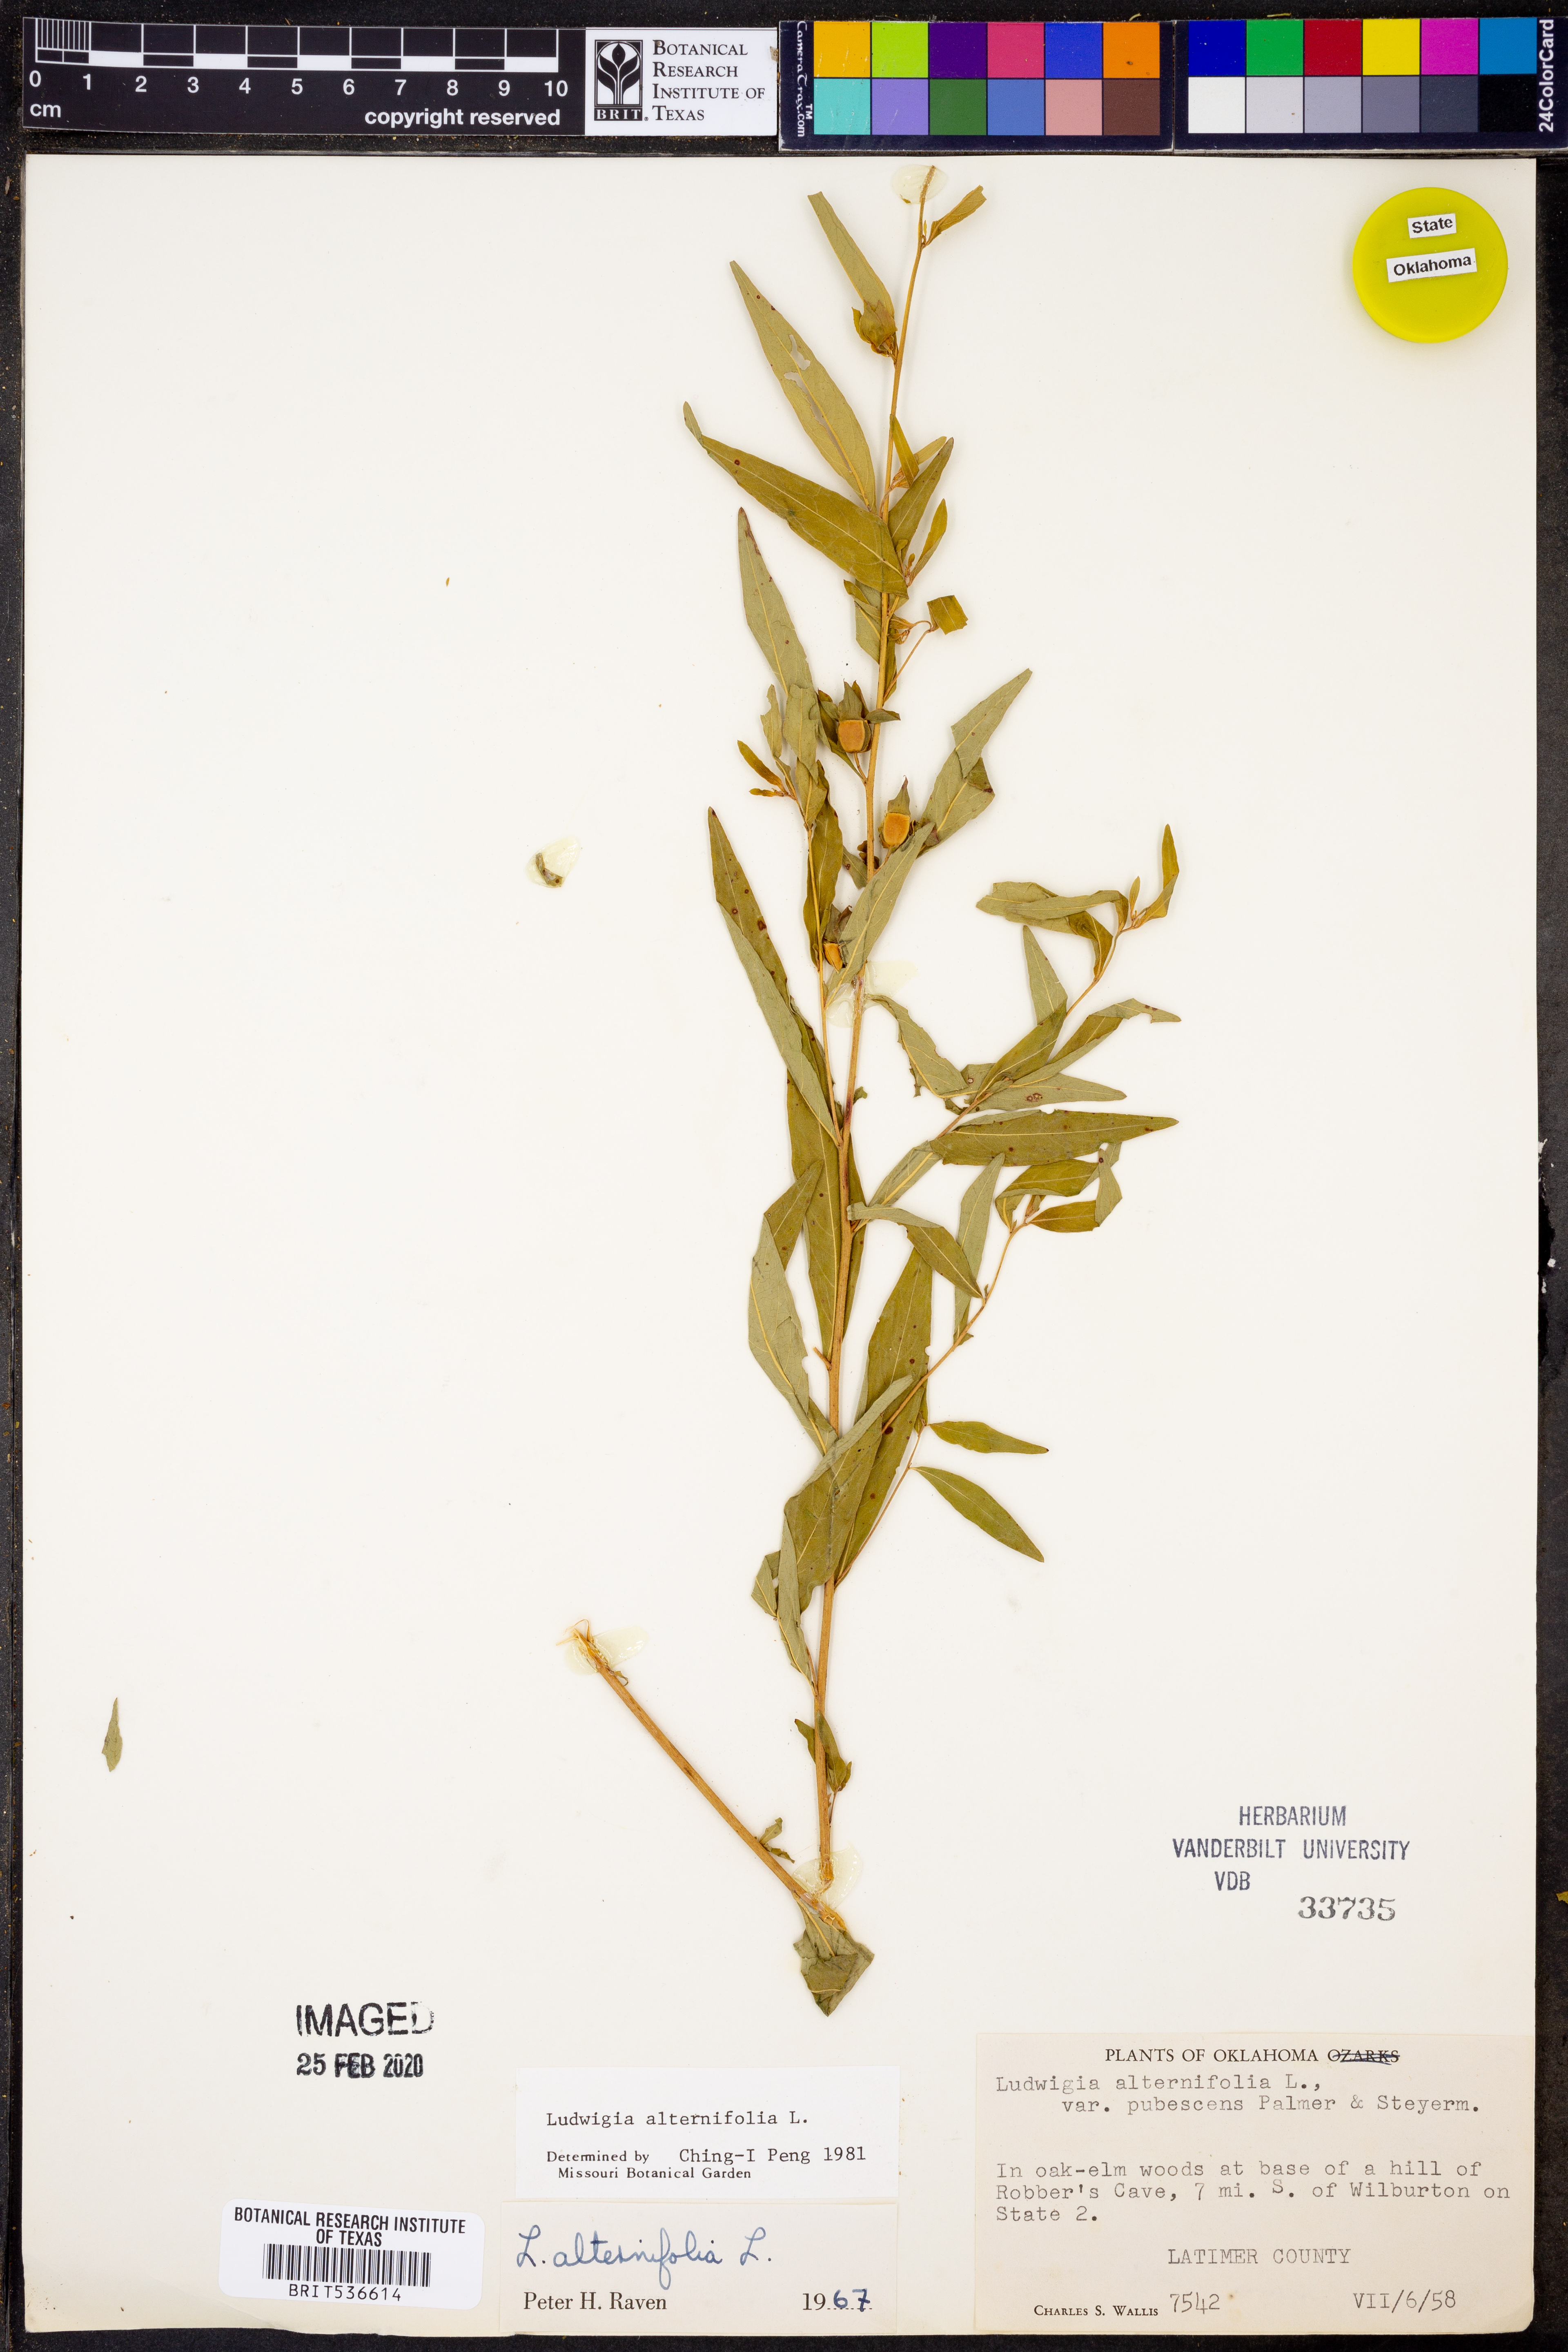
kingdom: Plantae
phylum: Tracheophyta
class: Magnoliopsida
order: Myrtales
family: Onagraceae
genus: Ludwigia
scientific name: Ludwigia alternifolia
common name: Rattlebox
